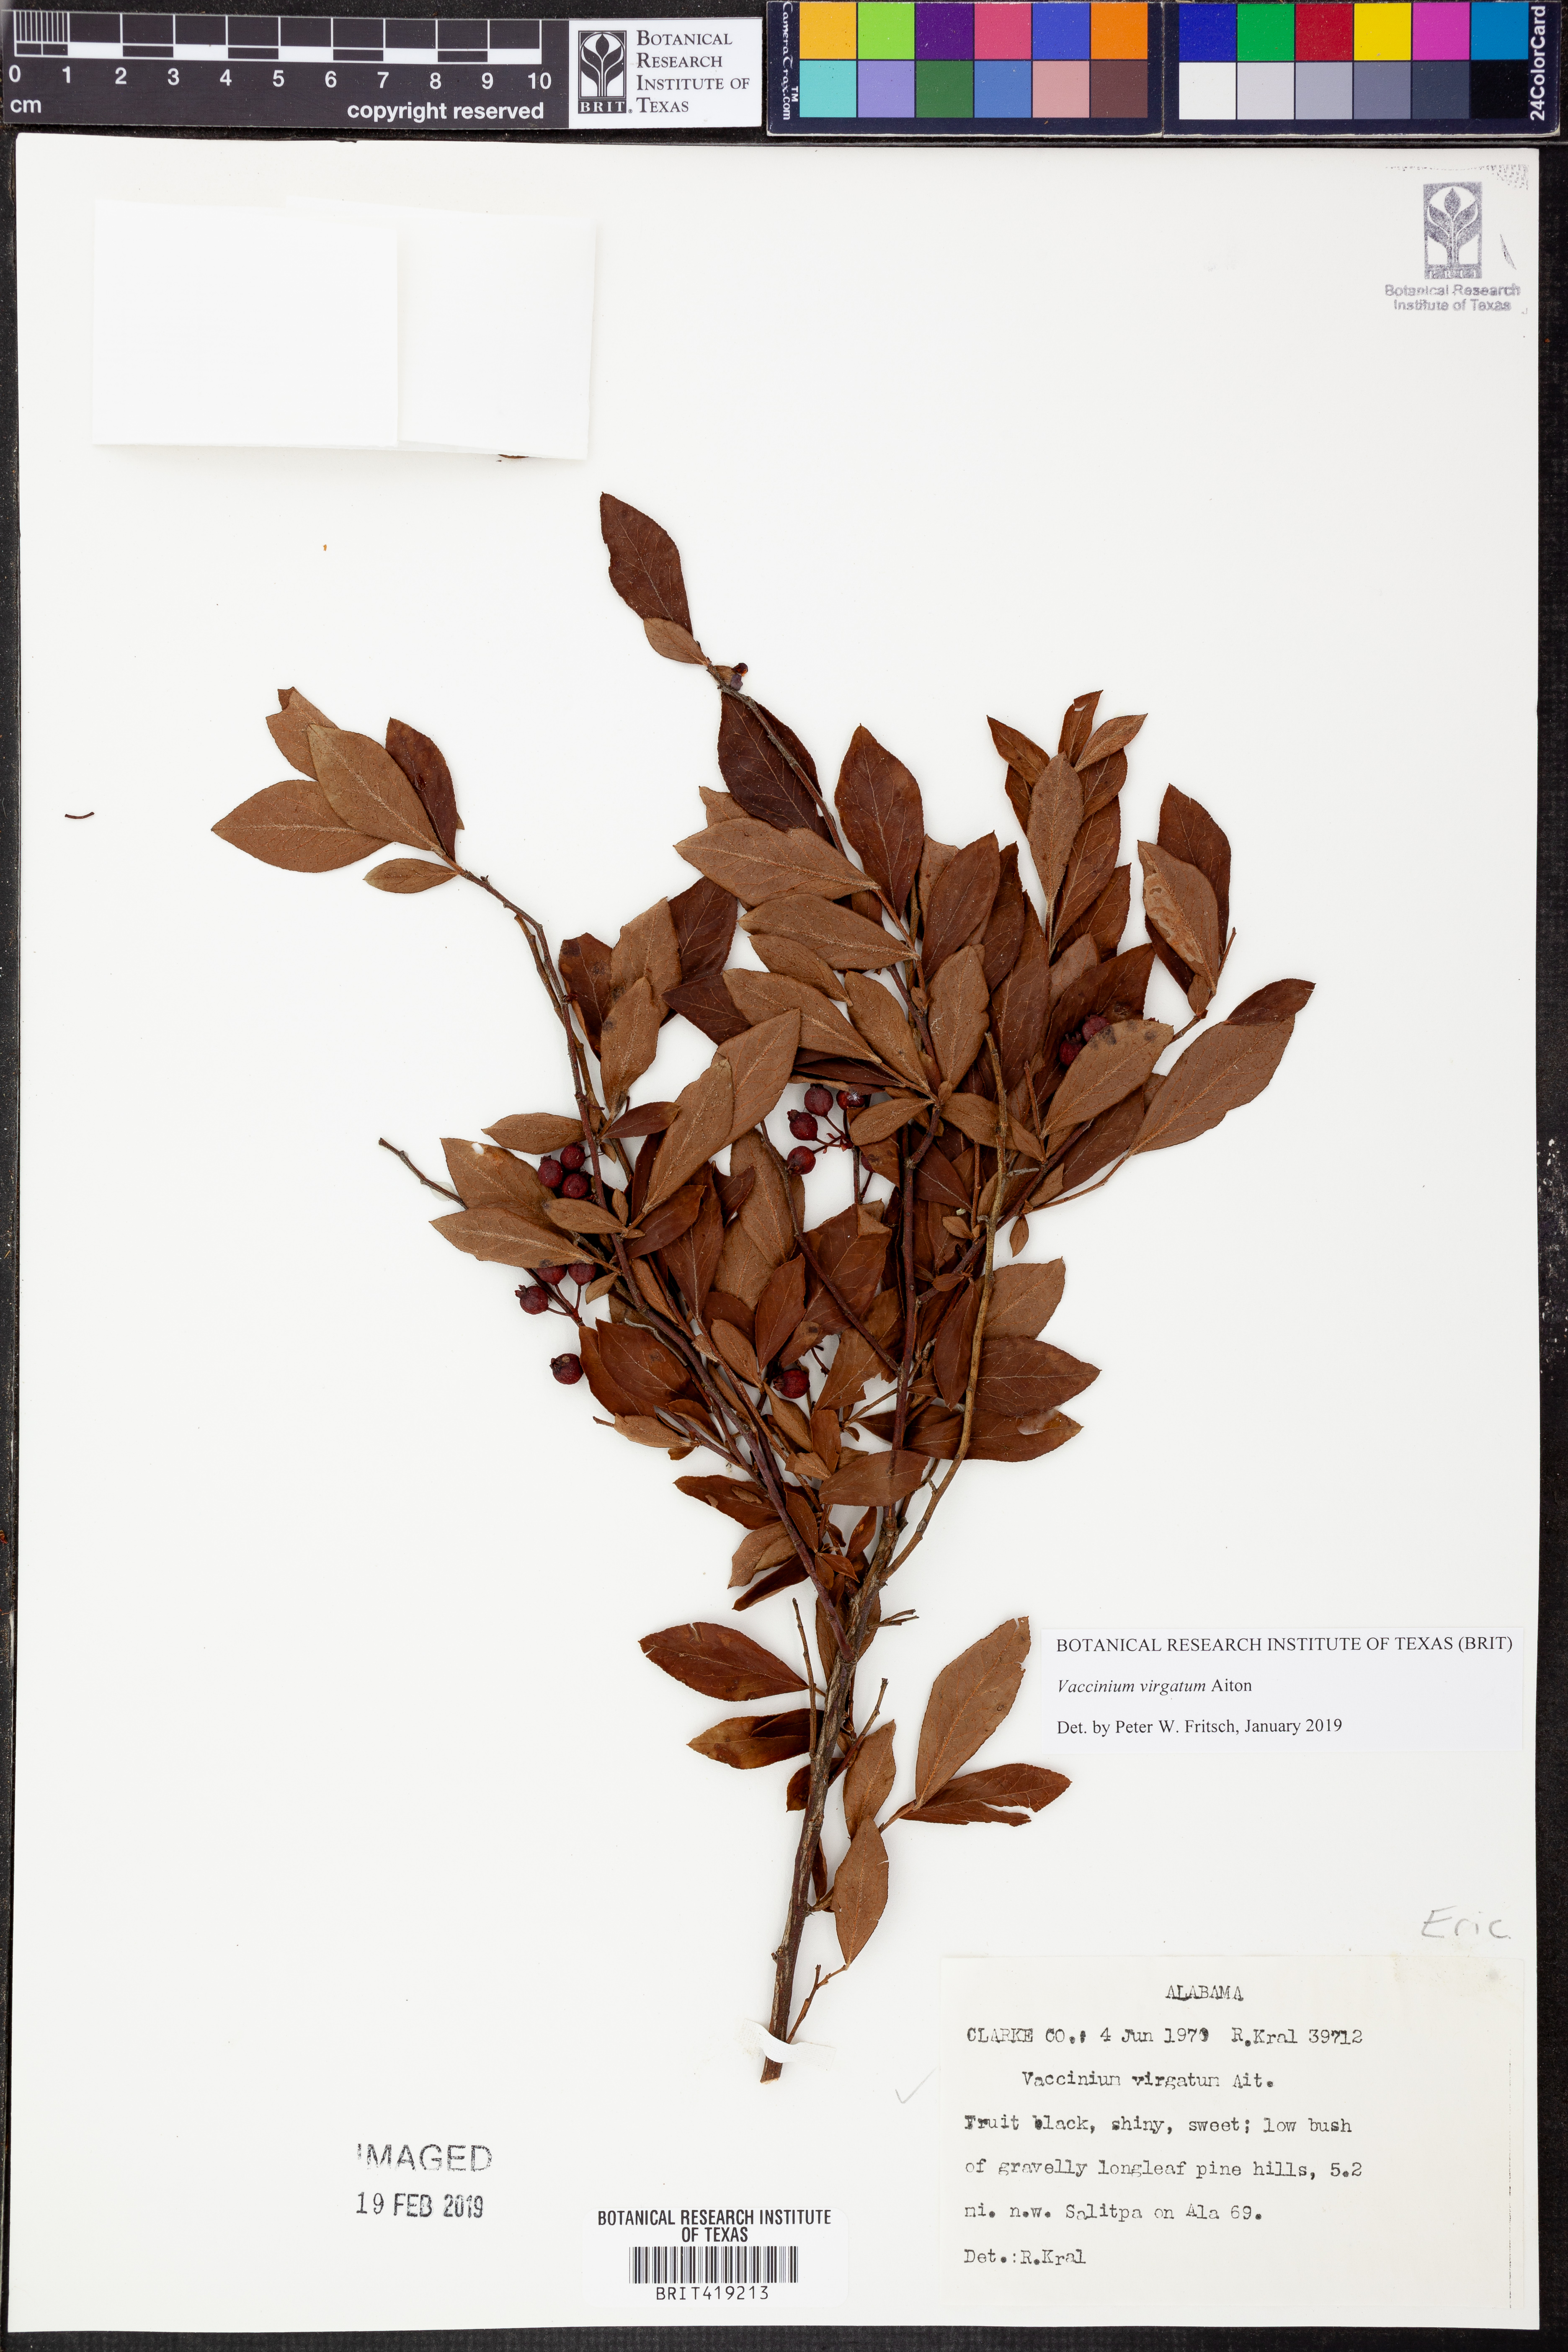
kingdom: Plantae
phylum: Tracheophyta
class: Magnoliopsida
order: Ericales
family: Ericaceae
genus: Vaccinium
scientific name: Vaccinium corymbosum
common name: Blueberry
